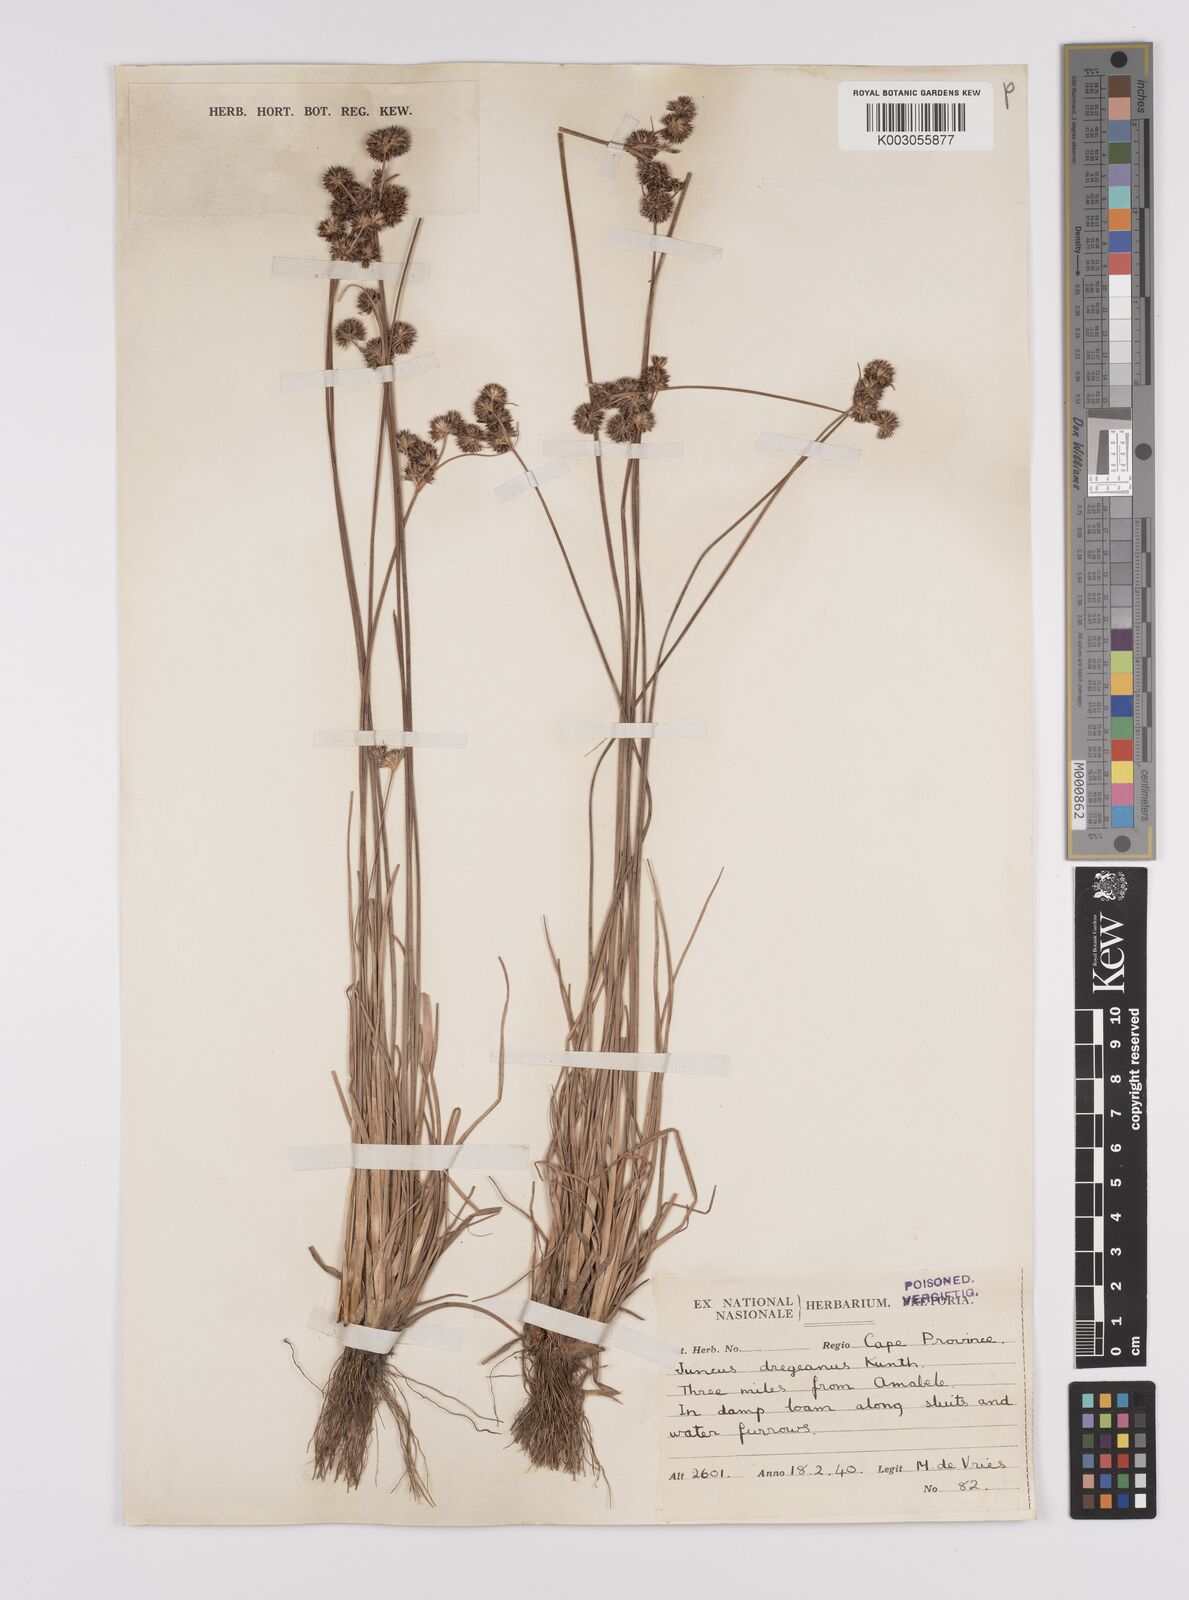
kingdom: Plantae
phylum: Tracheophyta
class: Liliopsida
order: Poales
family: Juncaceae
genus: Juncus
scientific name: Juncus dregeanus
